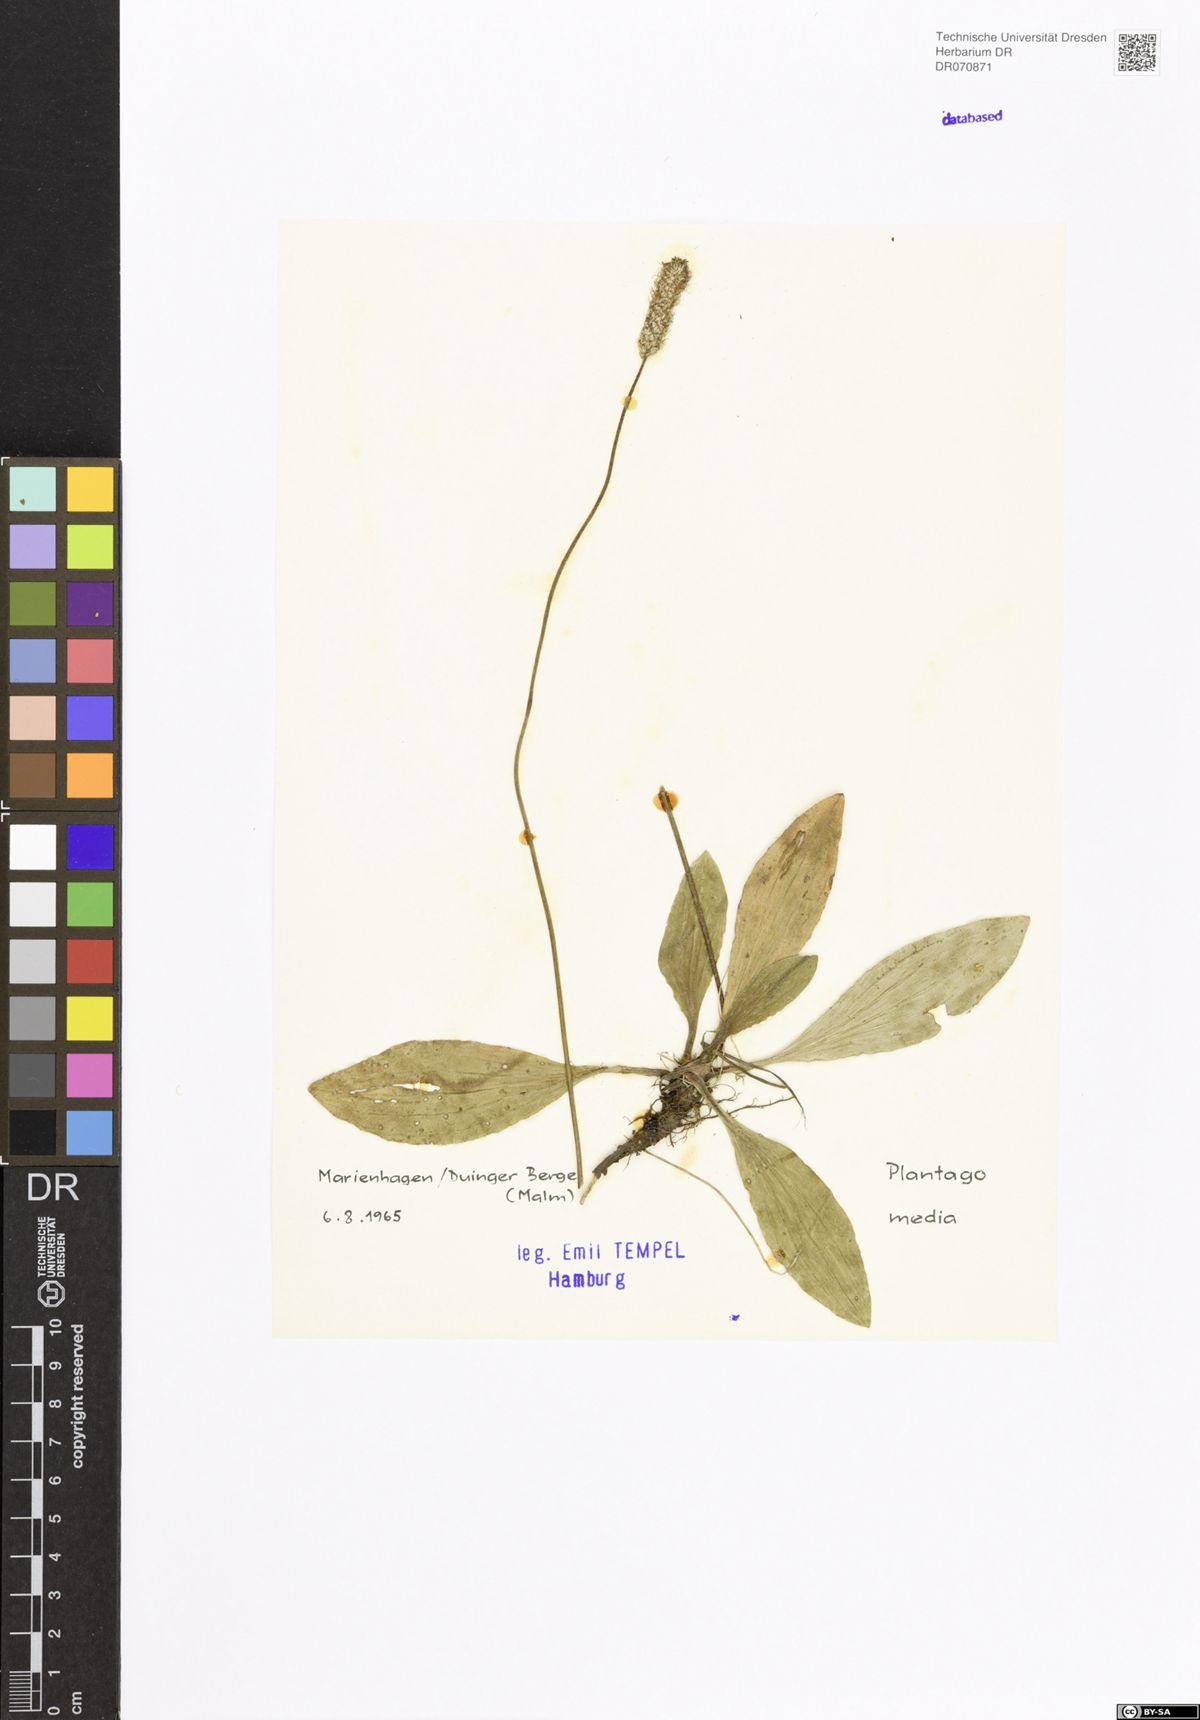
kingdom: Plantae
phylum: Tracheophyta
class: Magnoliopsida
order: Lamiales
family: Plantaginaceae
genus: Plantago
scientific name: Plantago media
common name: Hoary plantain
